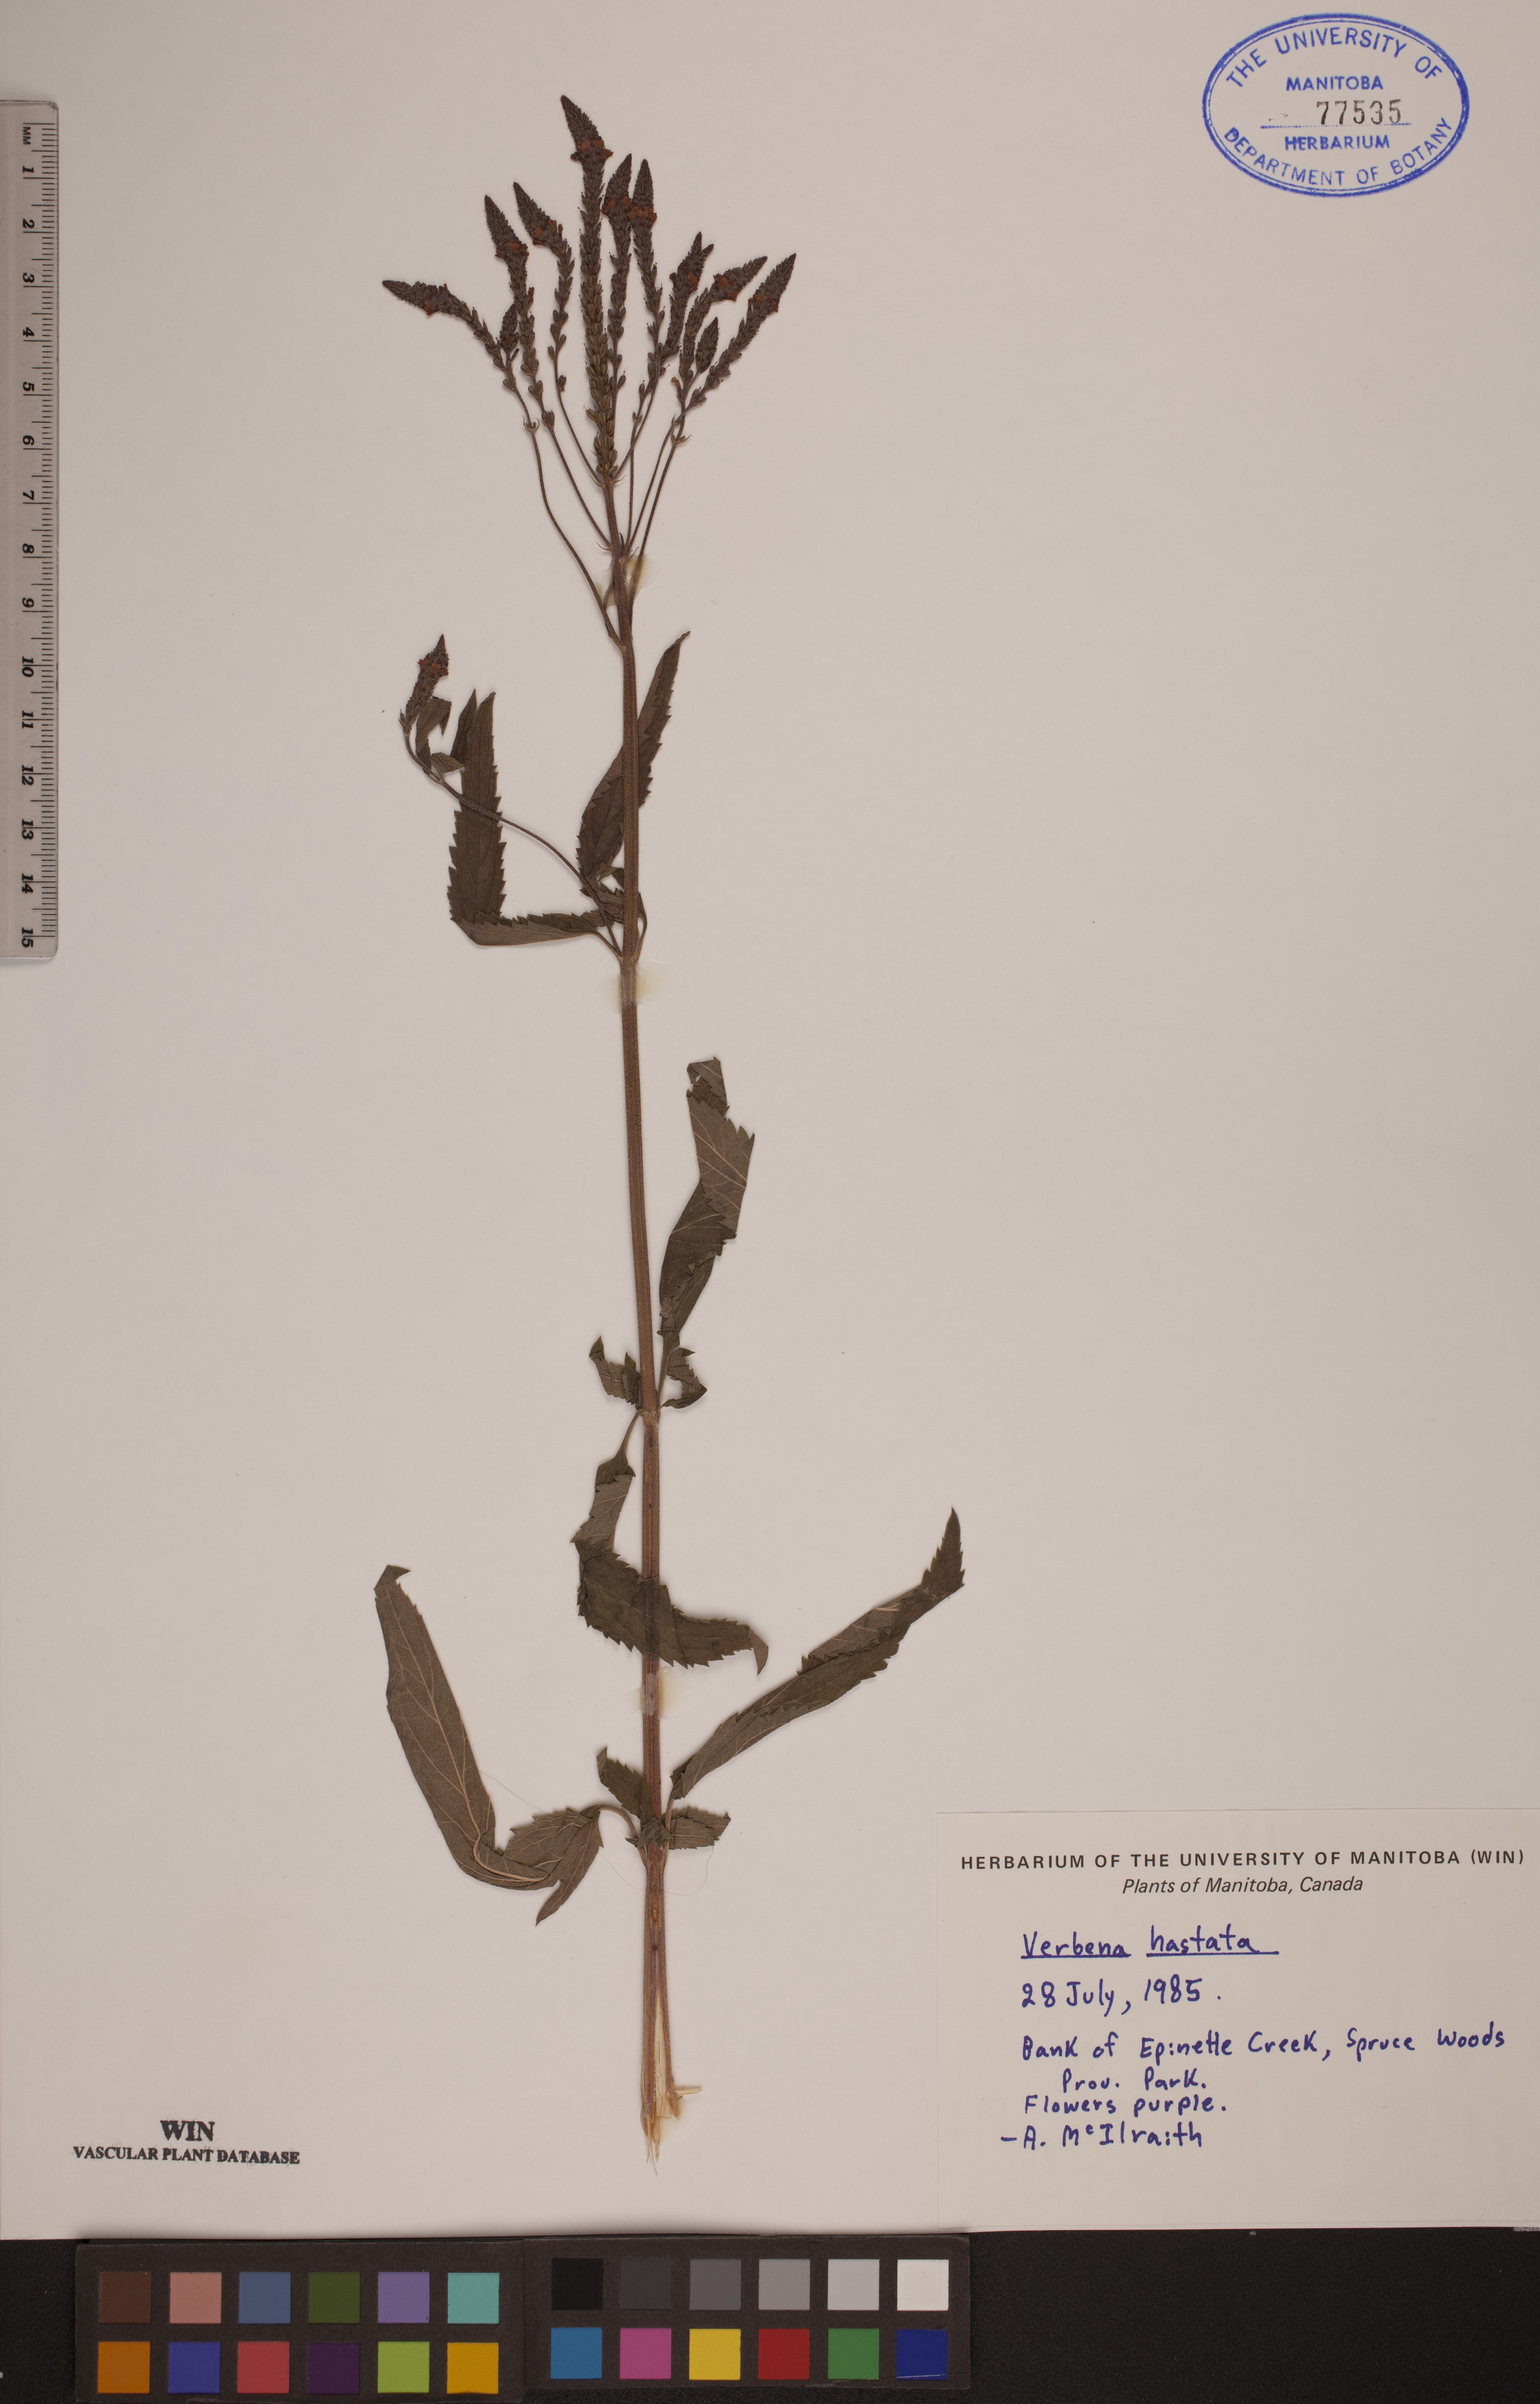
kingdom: Plantae
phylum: Tracheophyta
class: Magnoliopsida
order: Lamiales
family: Verbenaceae
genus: Verbena
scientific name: Verbena hastata
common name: American blue vervain
